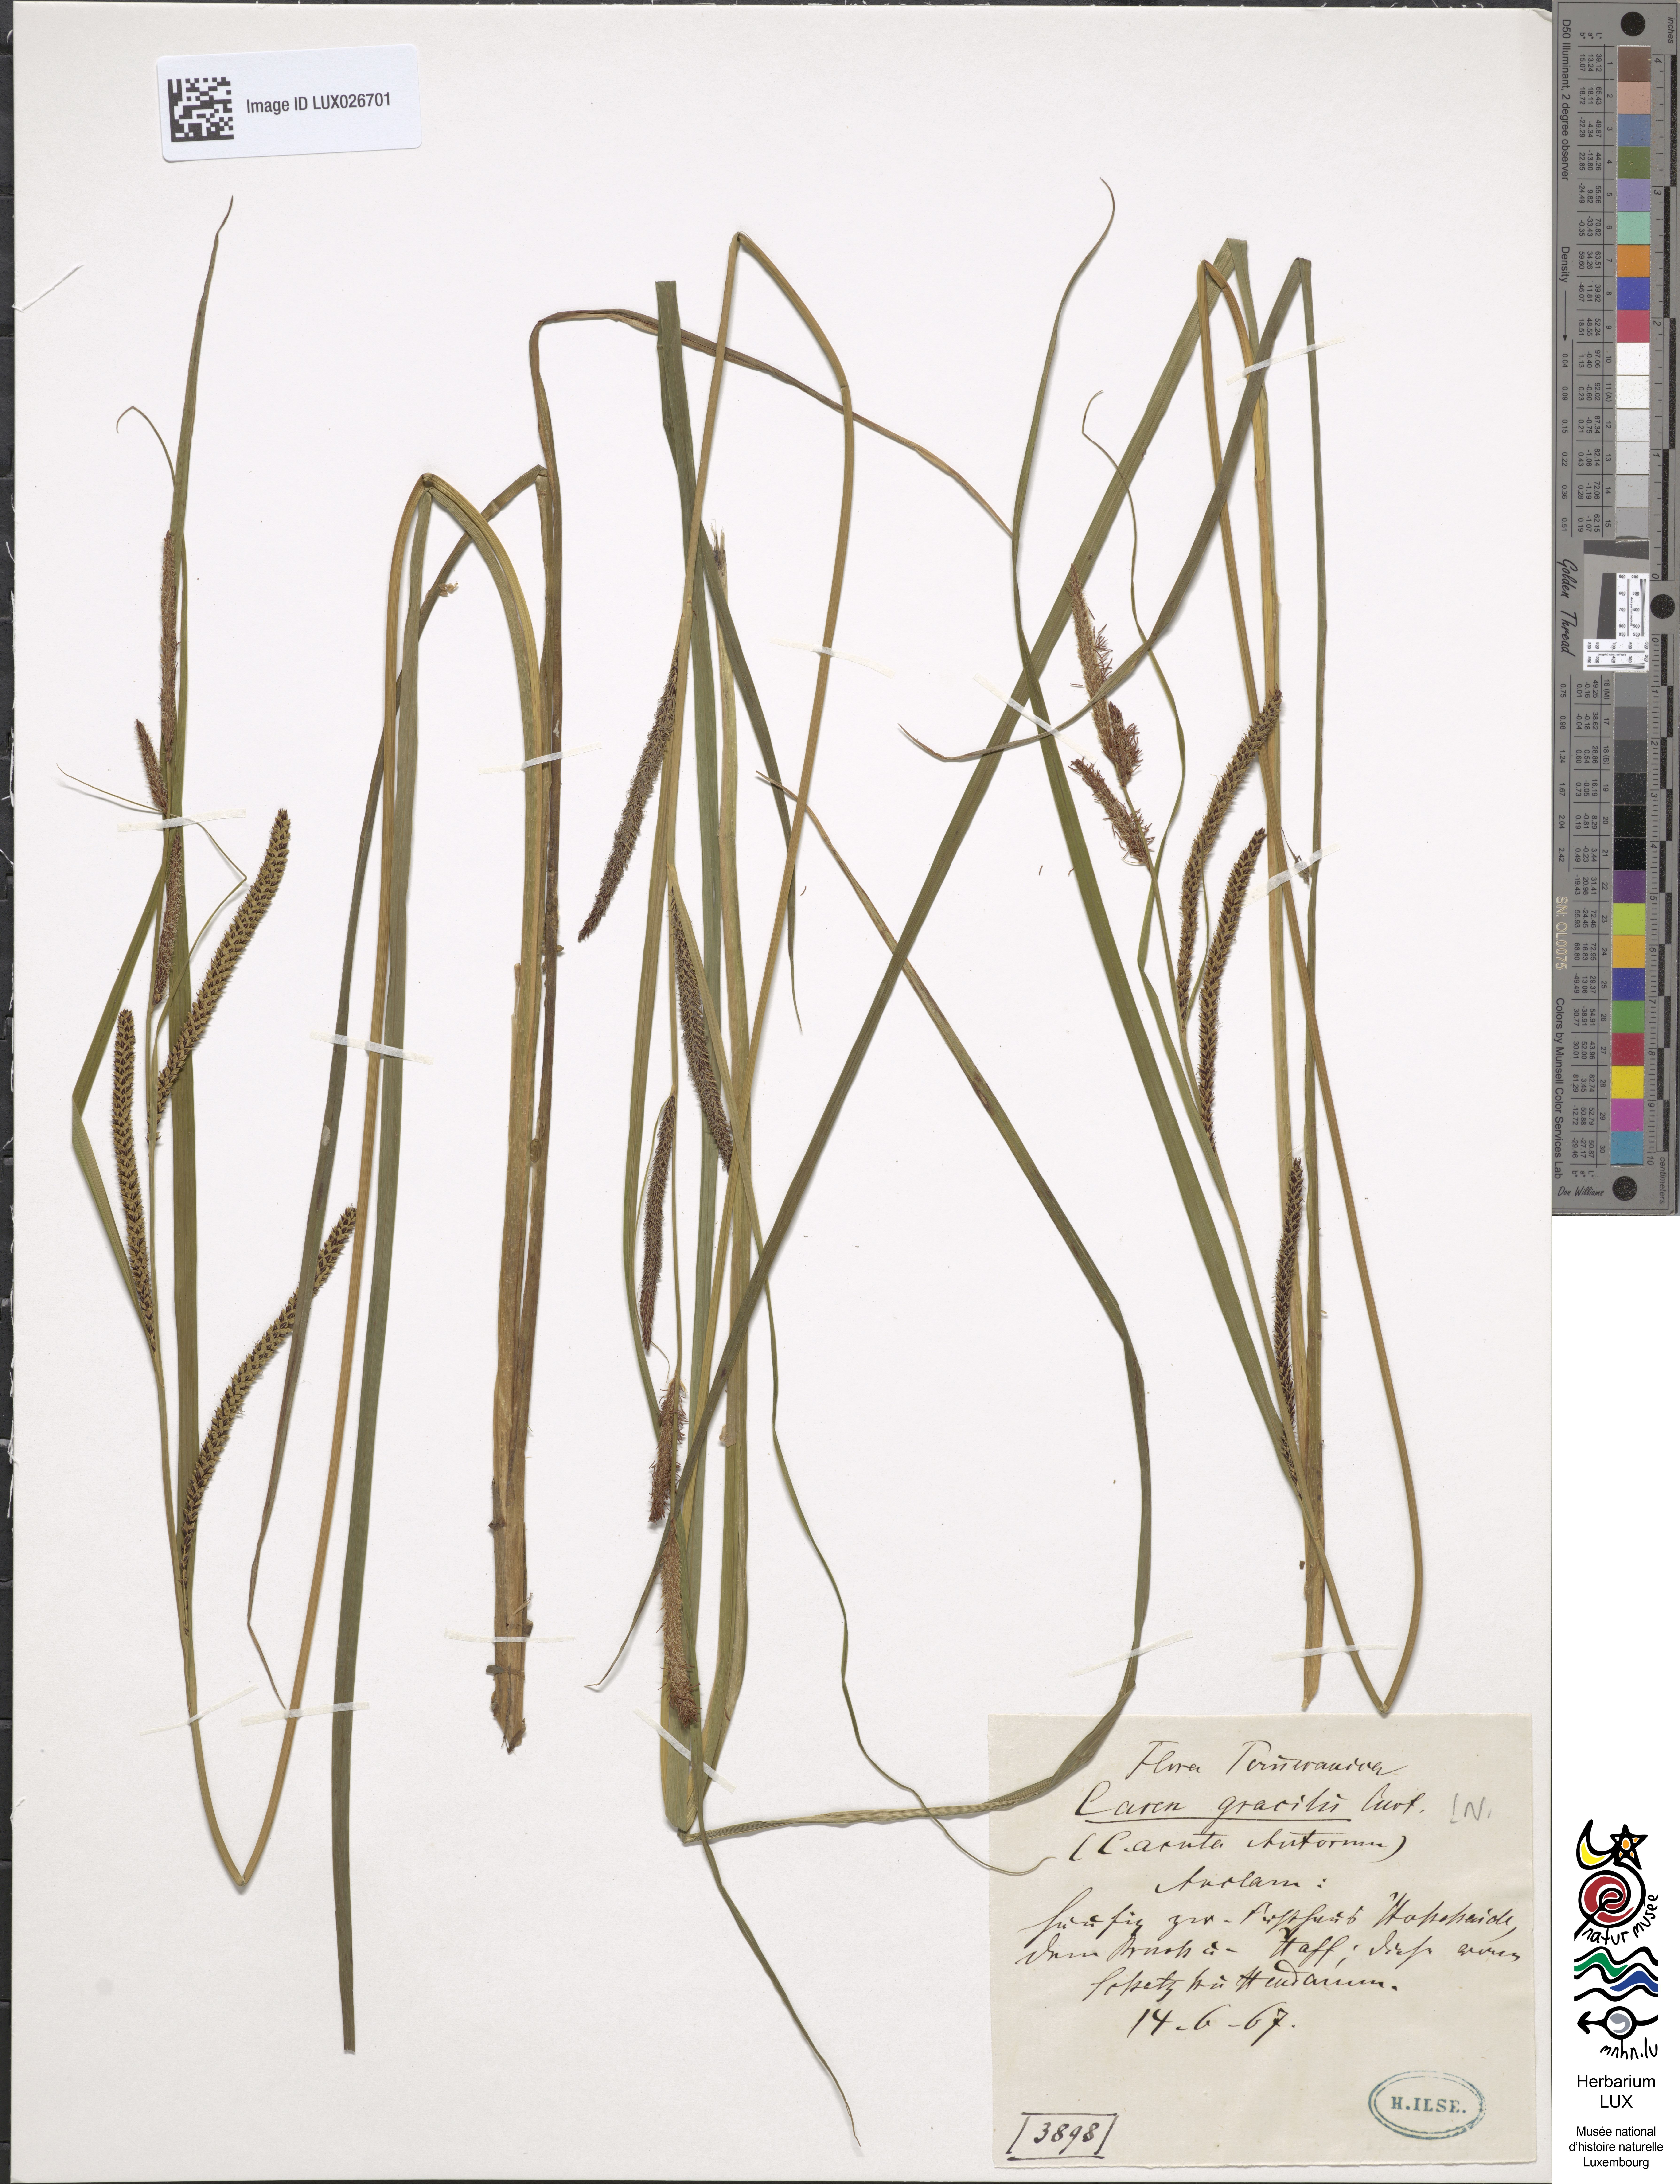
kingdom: Plantae
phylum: Tracheophyta
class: Liliopsida
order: Poales
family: Cyperaceae
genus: Carex
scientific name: Carex acuta
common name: Slender tufted-sedge
